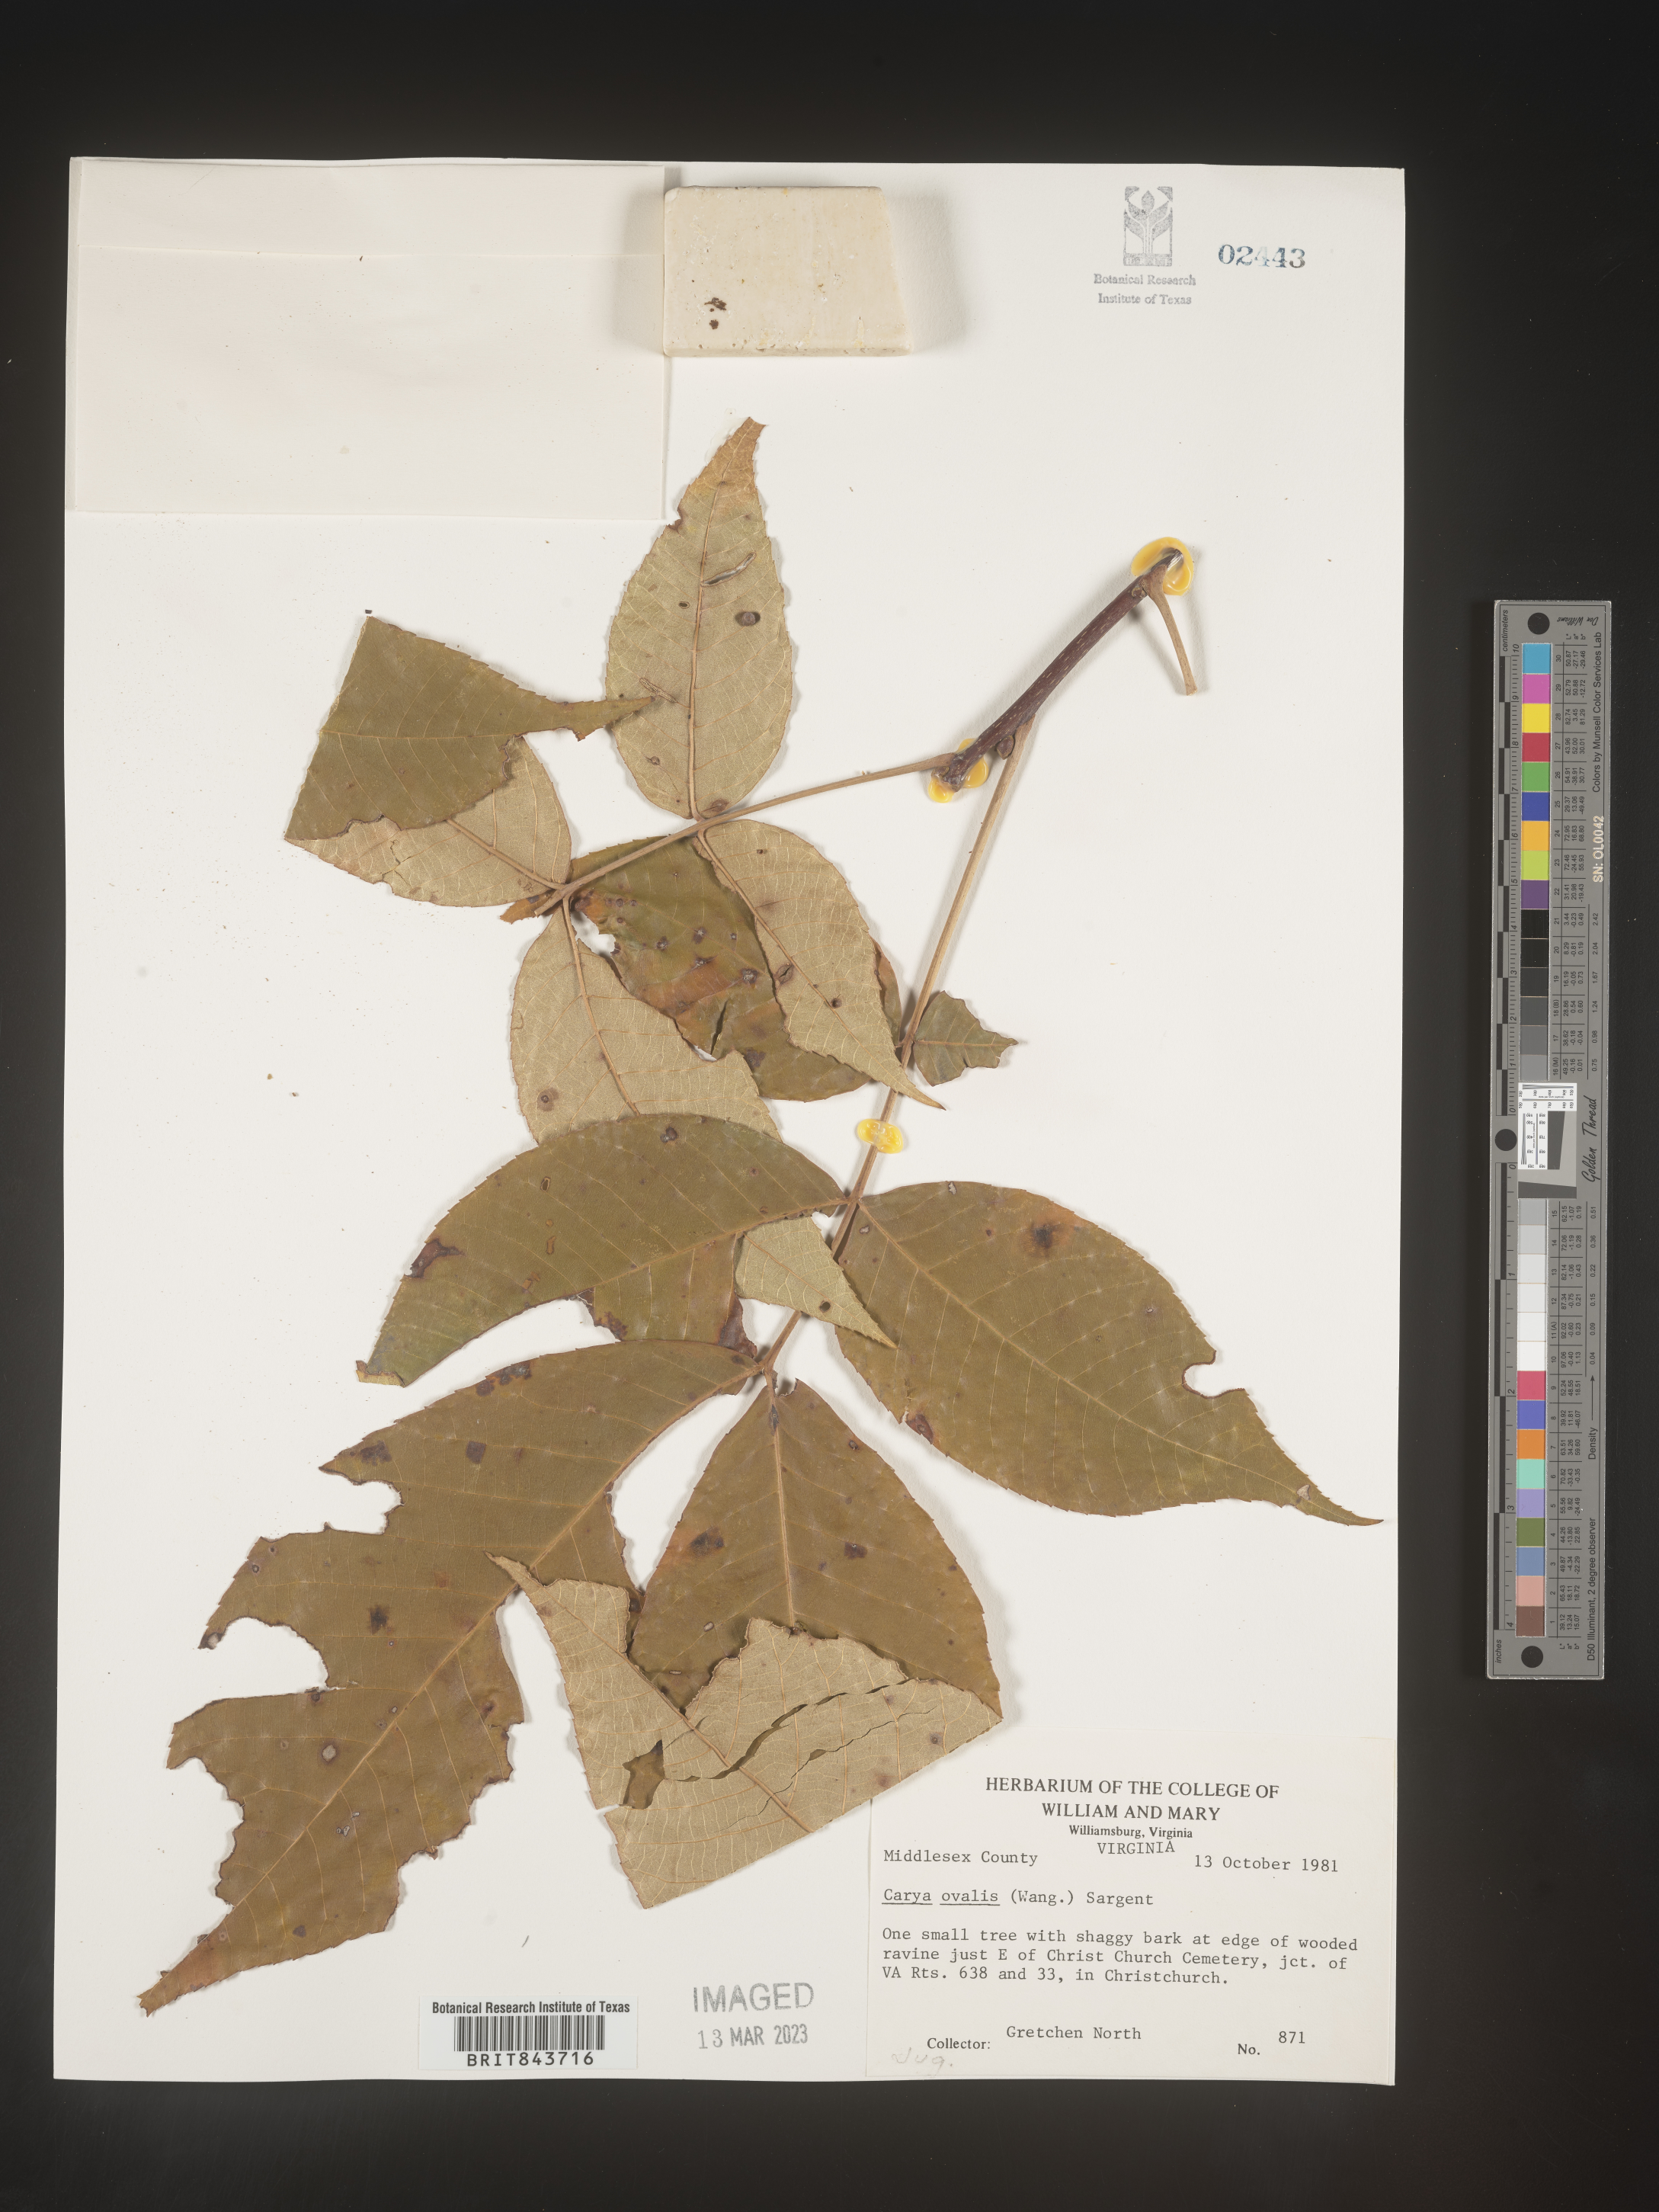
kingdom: Plantae
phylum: Tracheophyta
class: Magnoliopsida
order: Fagales
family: Juglandaceae
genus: Carya
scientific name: Carya ovalis
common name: False shagbark
